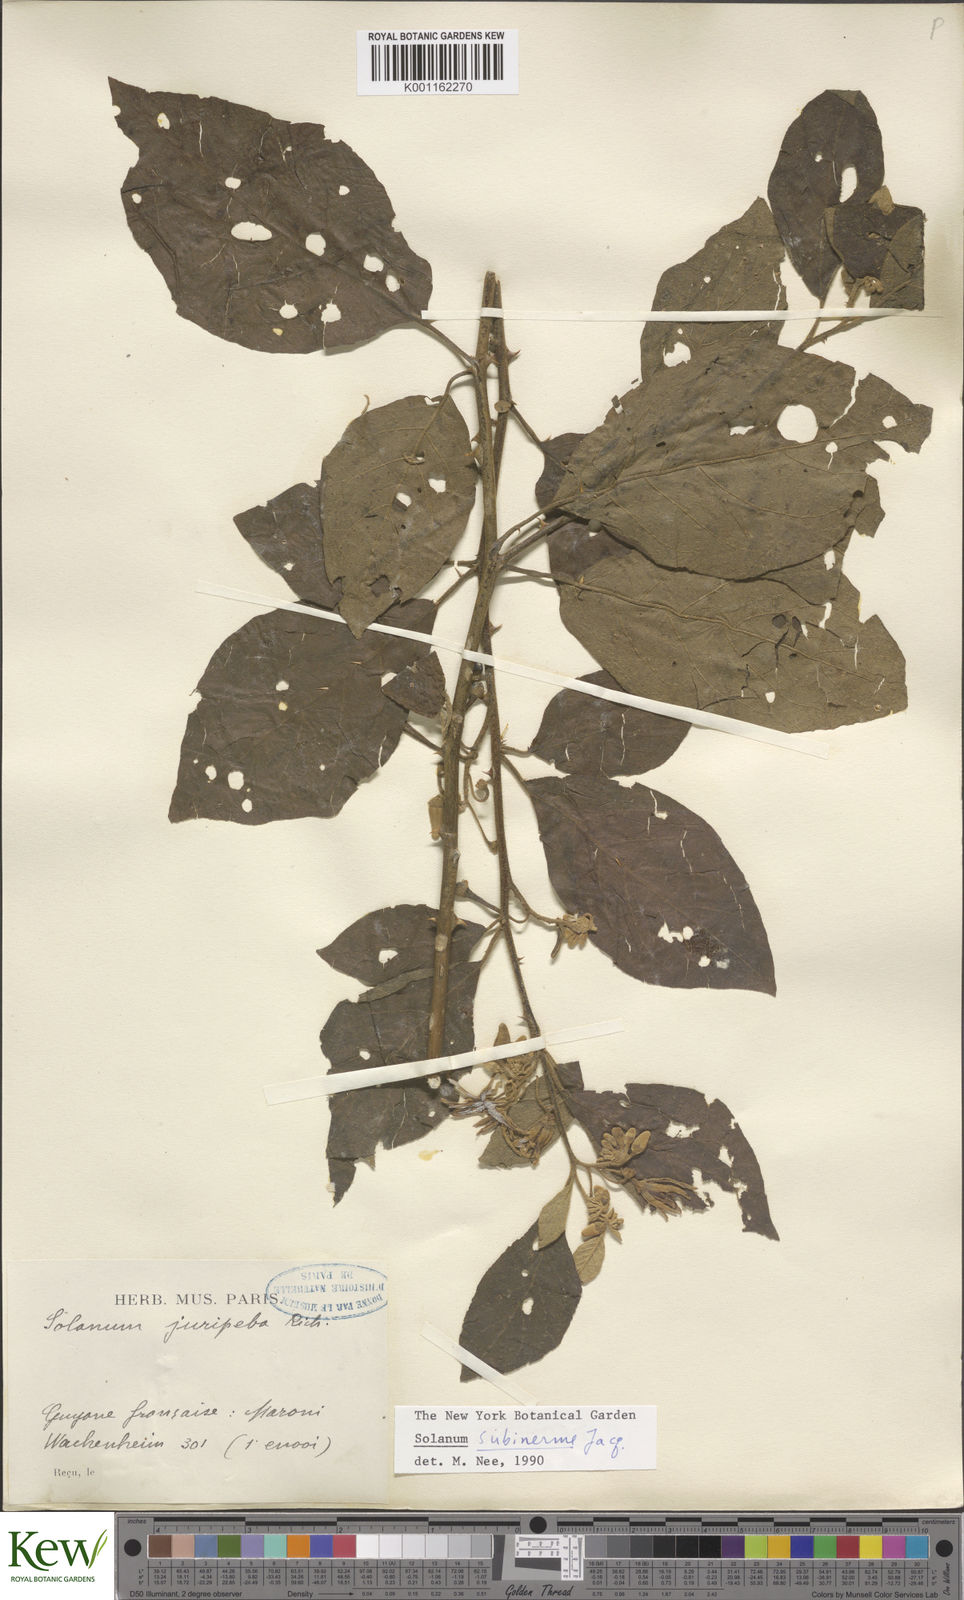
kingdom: Plantae
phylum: Tracheophyta
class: Magnoliopsida
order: Solanales
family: Solanaceae
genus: Solanum
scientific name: Solanum subinerme
